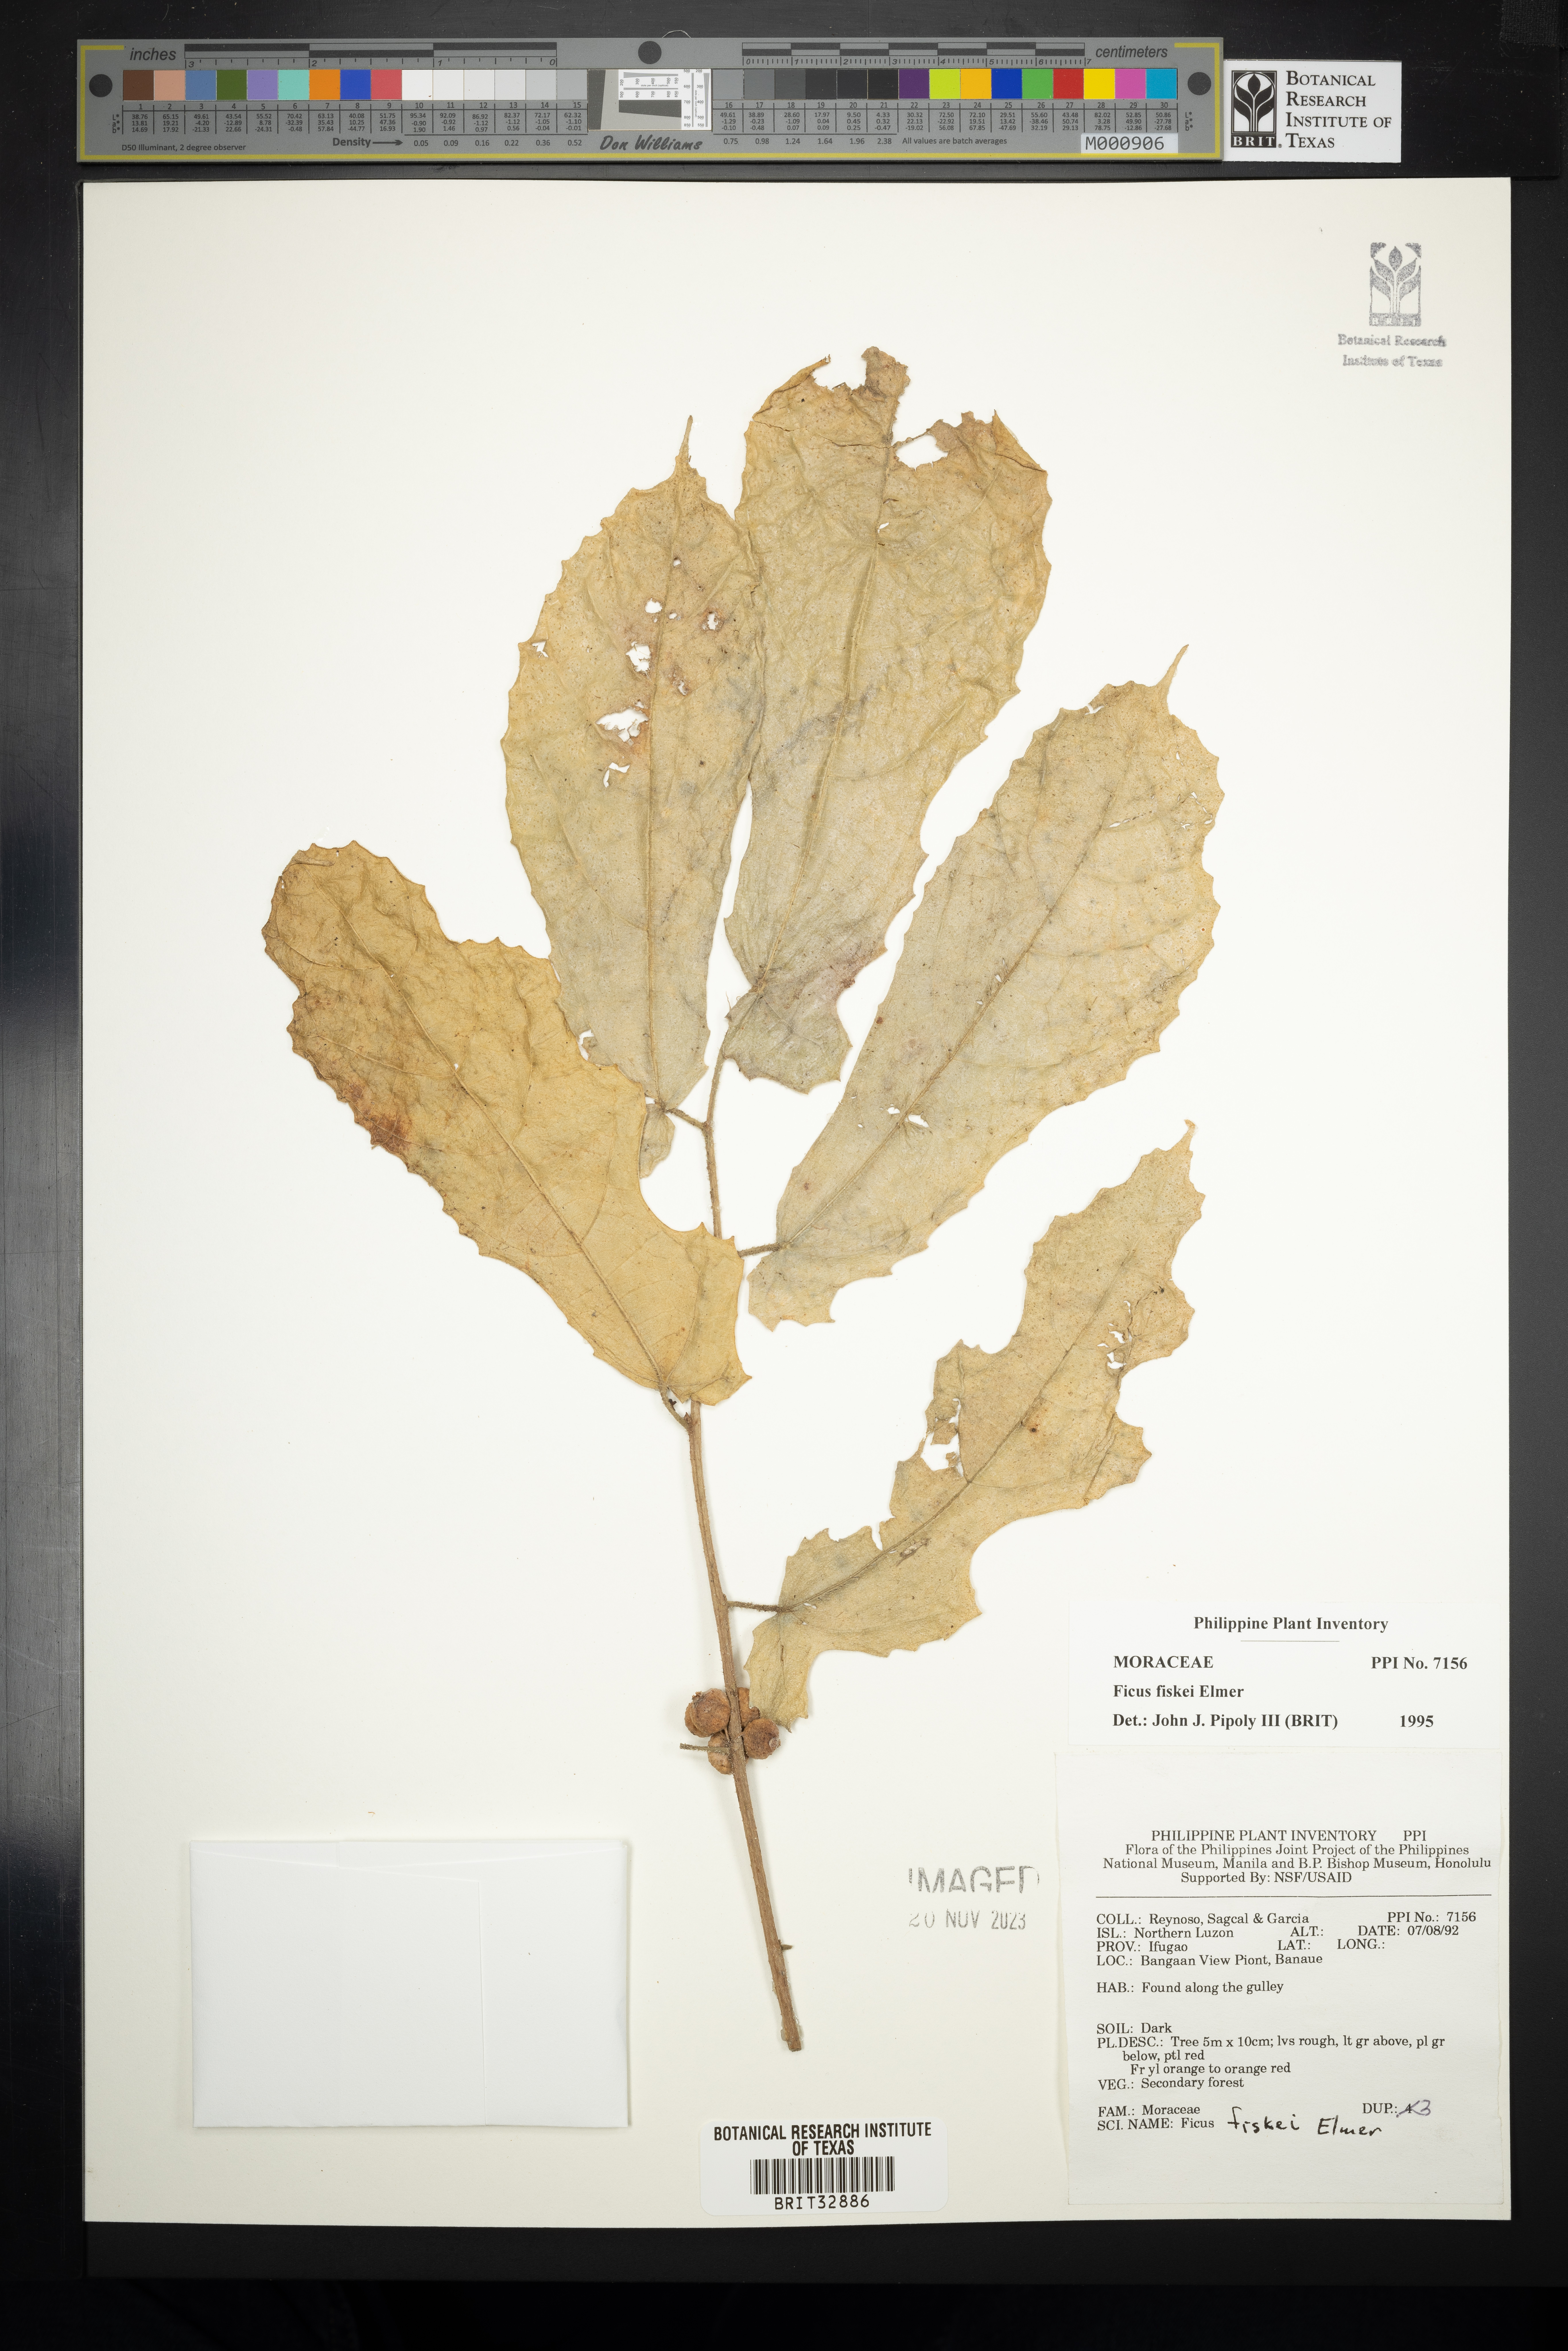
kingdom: Plantae
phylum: Tracheophyta
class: Magnoliopsida
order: Rosales
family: Moraceae
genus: Ficus
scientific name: Ficus fiskei
